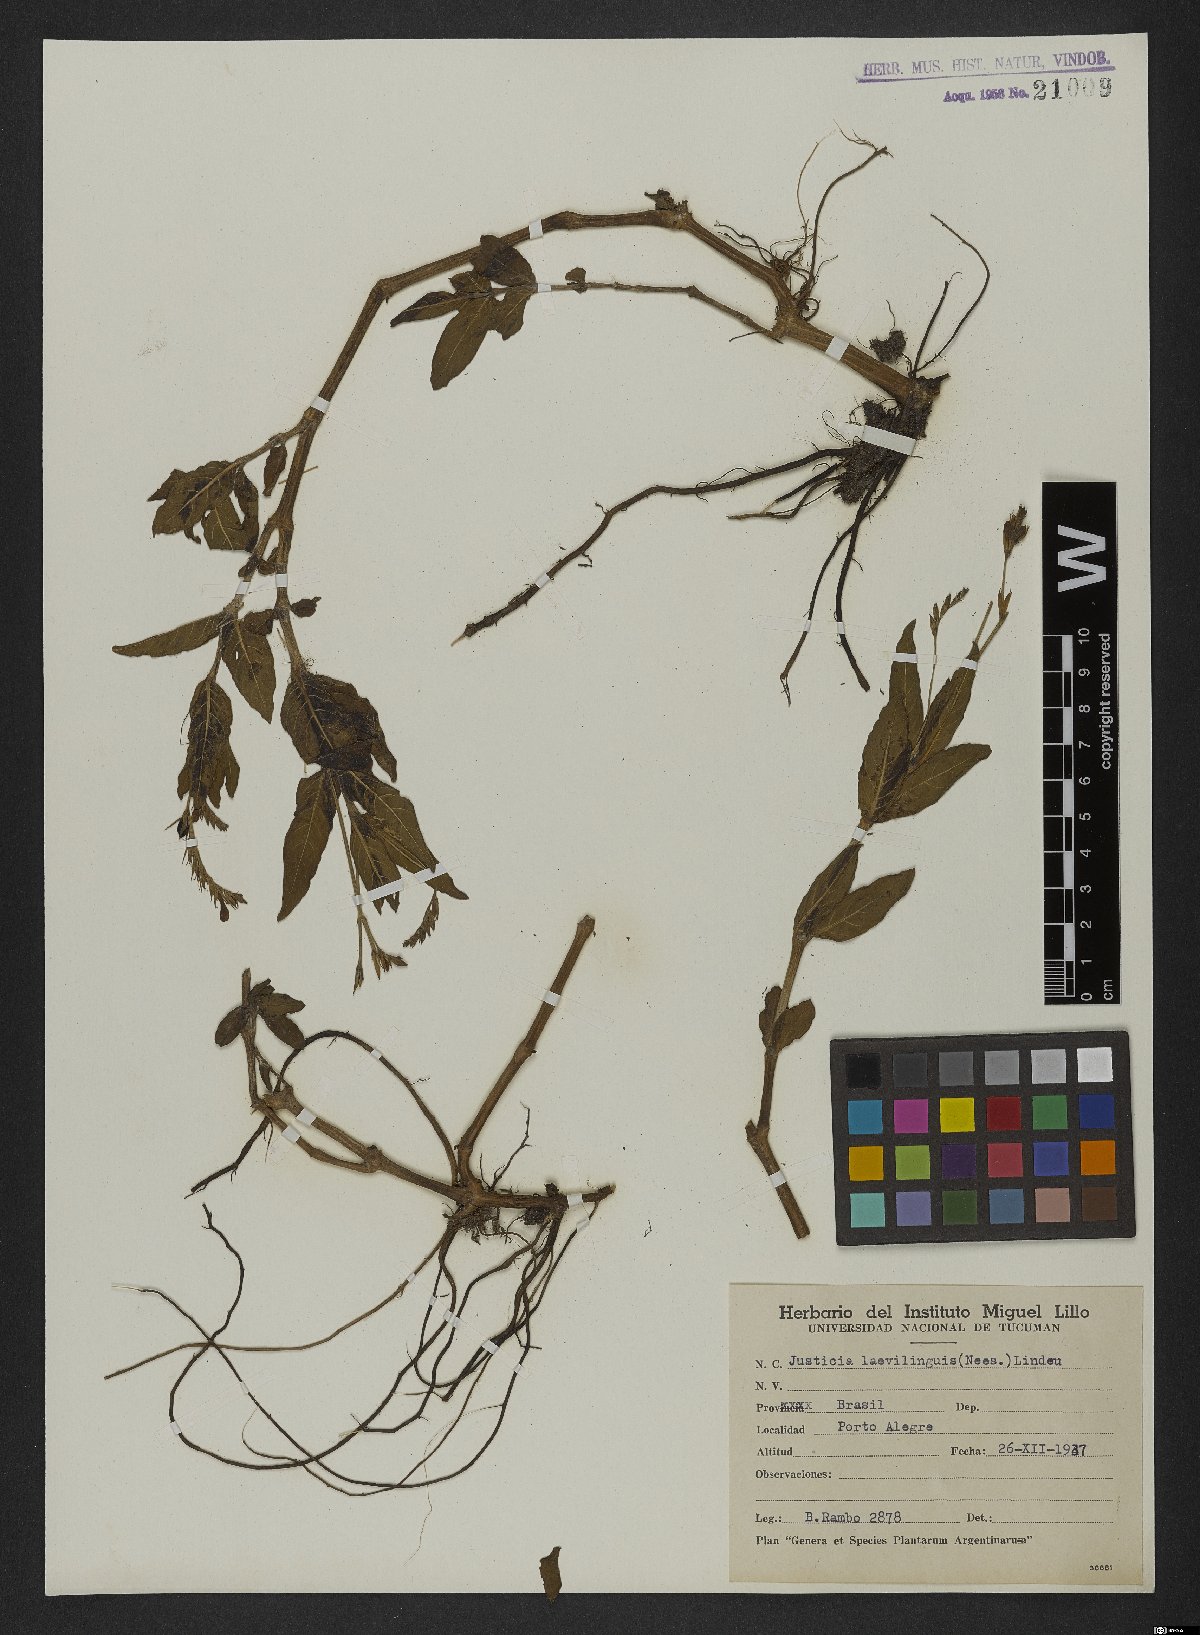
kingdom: Plantae
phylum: Tracheophyta
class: Magnoliopsida
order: Lamiales
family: Acanthaceae
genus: Dianthera
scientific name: Dianthera laevilinguis
